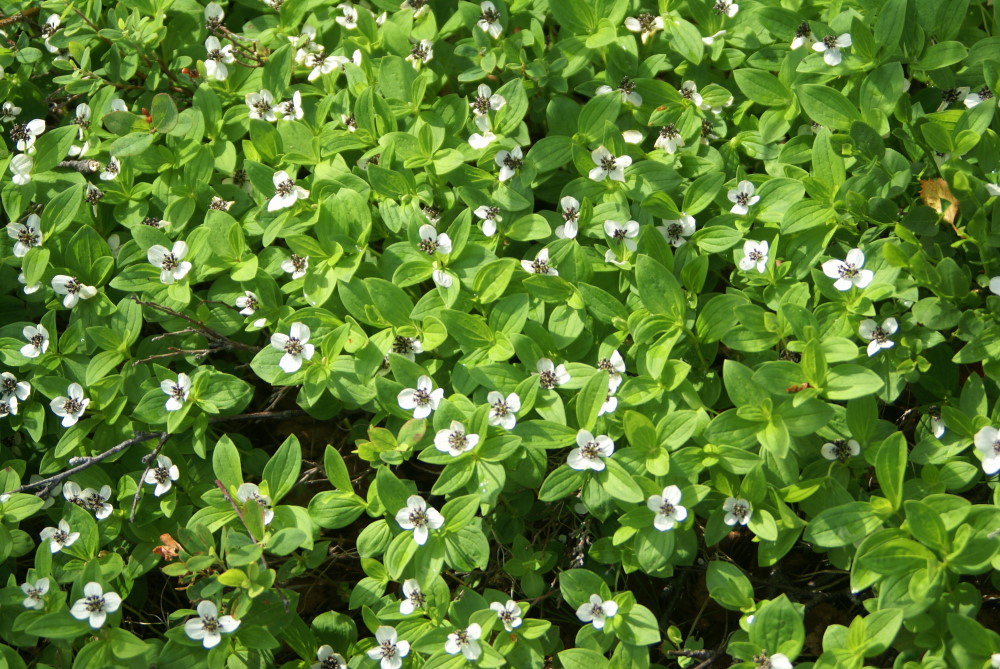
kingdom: Plantae
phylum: Tracheophyta
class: Magnoliopsida
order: Cornales
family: Cornaceae
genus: Cornus
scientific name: Cornus suecica
